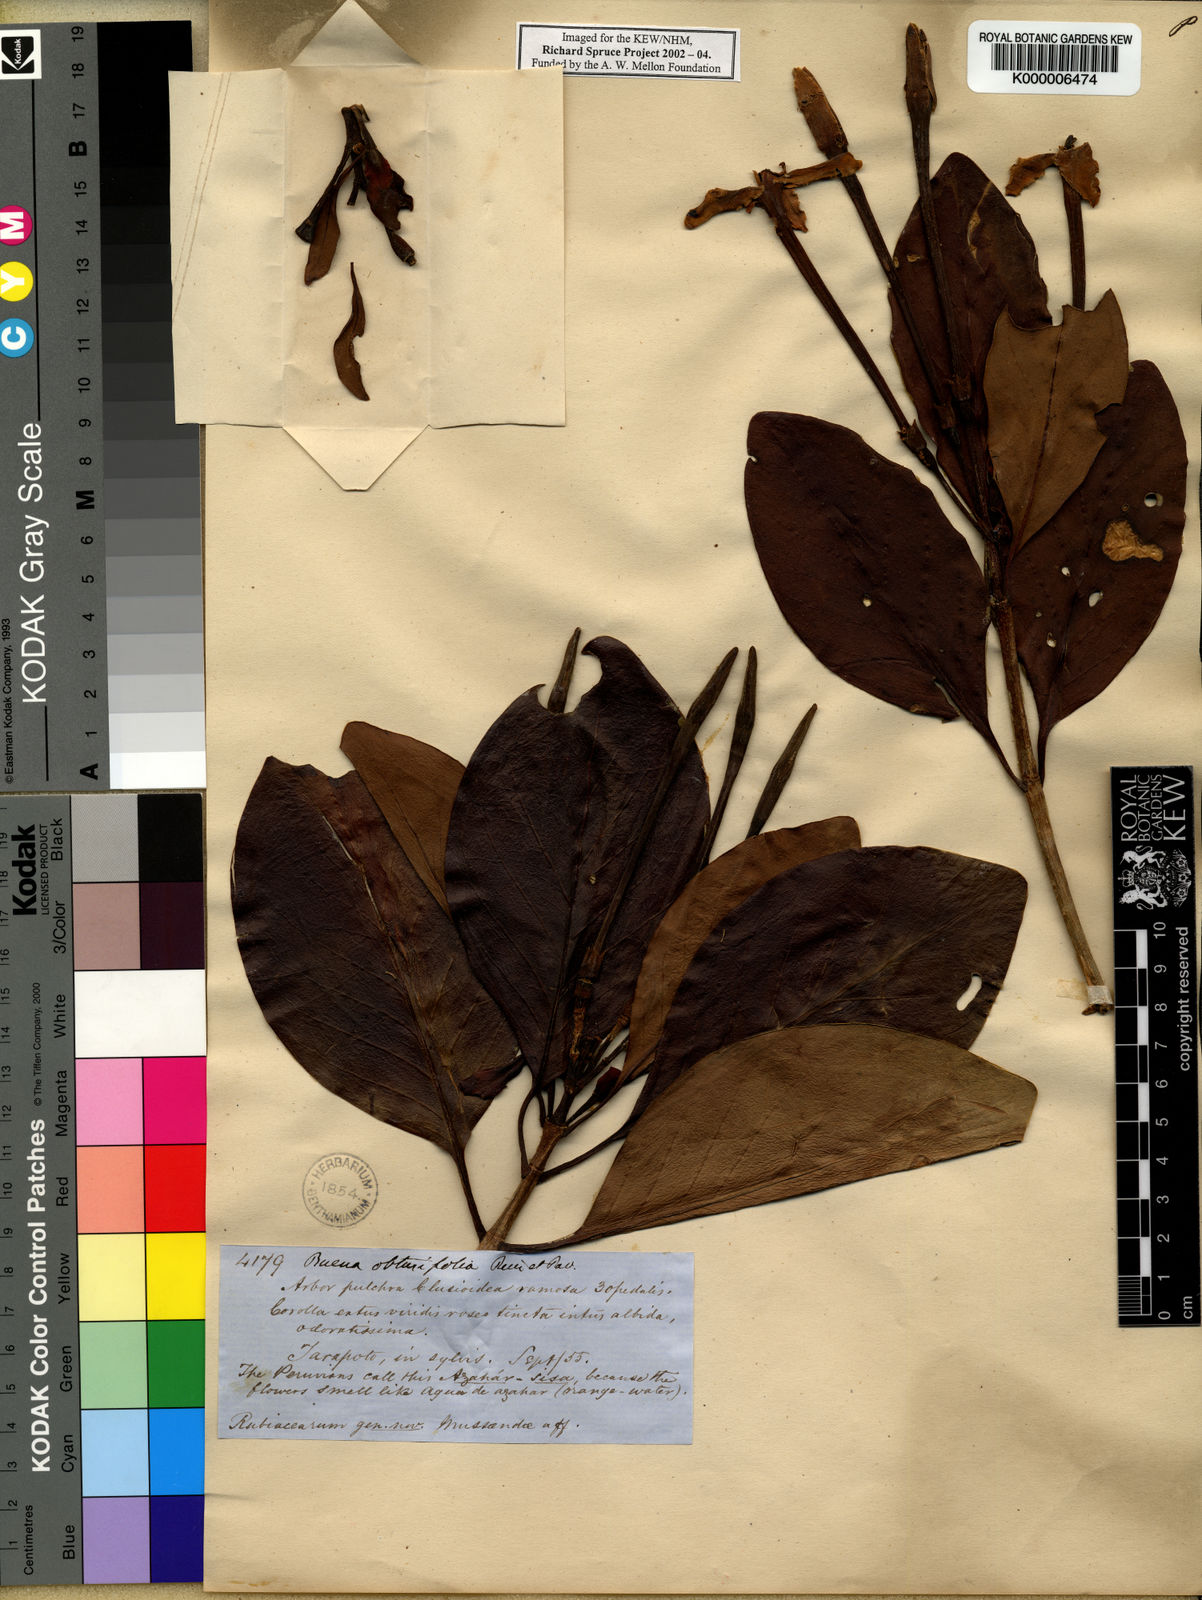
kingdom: Plantae
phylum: Tracheophyta
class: Magnoliopsida
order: Gentianales
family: Rubiaceae
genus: Cosmibuena
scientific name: Cosmibuena grandiflora
